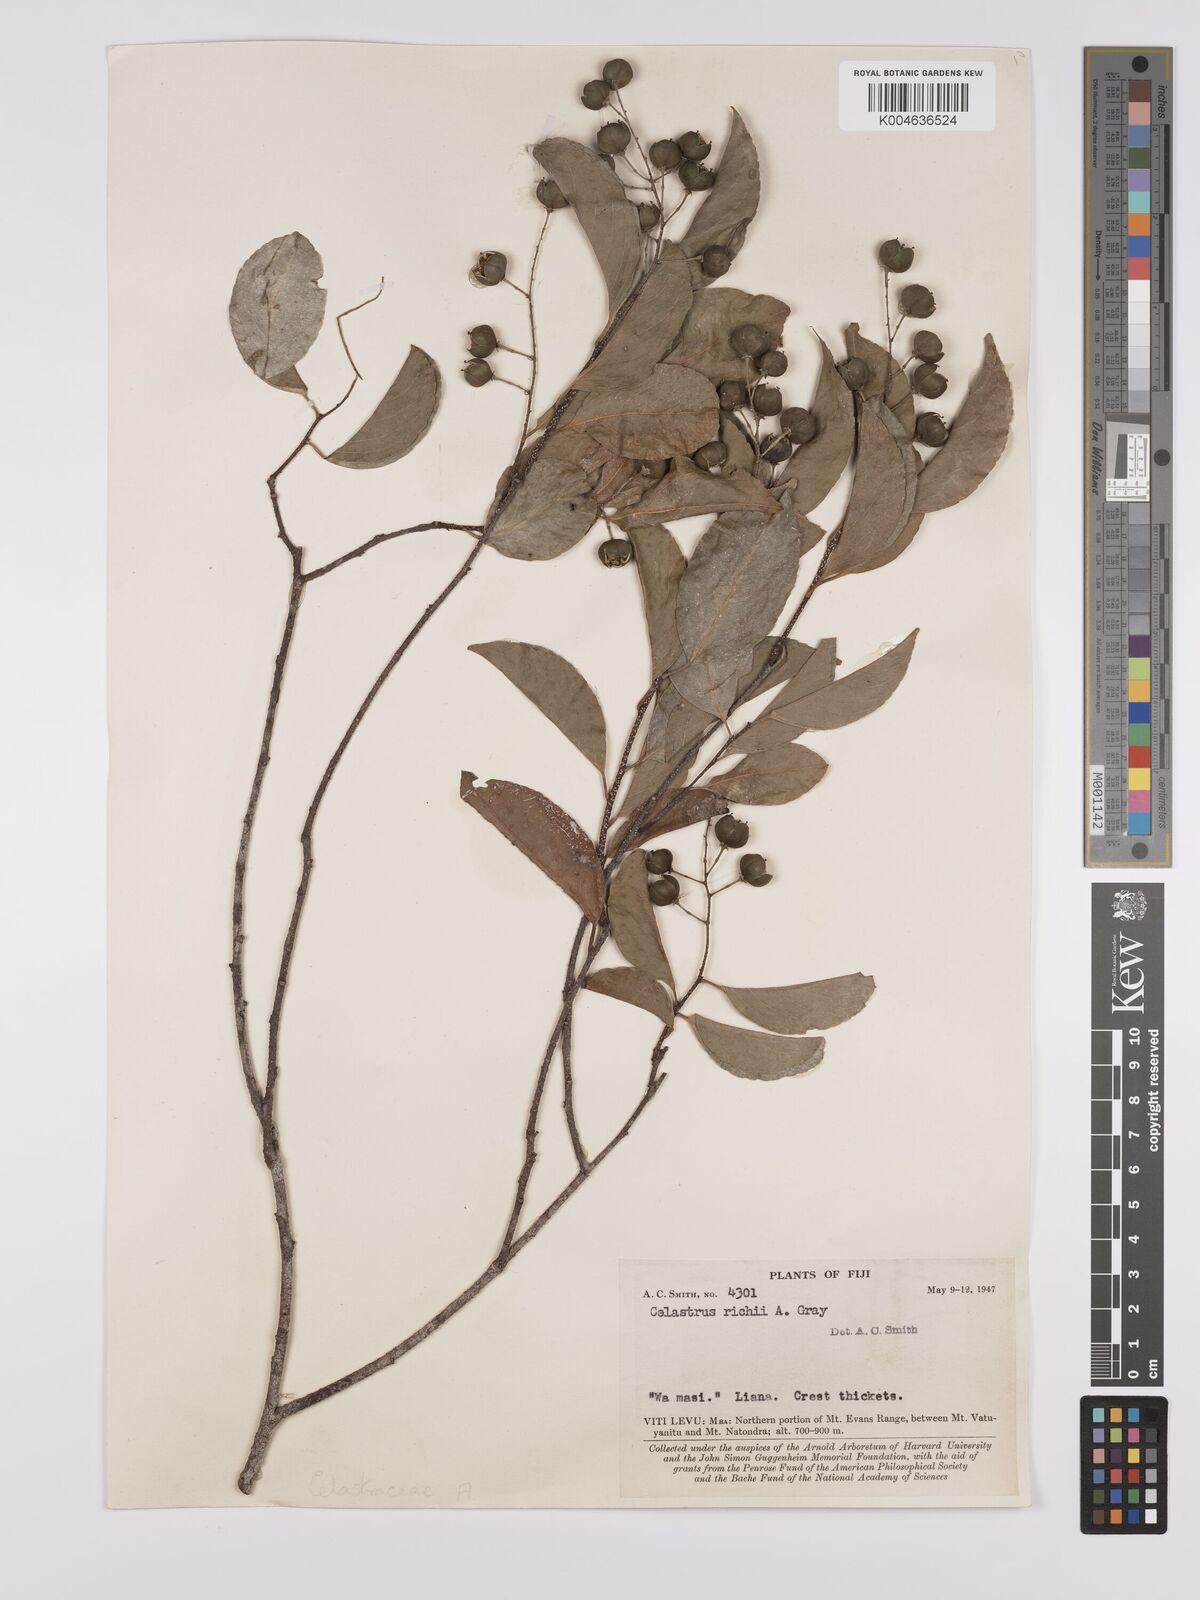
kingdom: Plantae
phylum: Tracheophyta
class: Magnoliopsida
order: Celastrales
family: Celastraceae
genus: Celastrus
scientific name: Celastrus richii
